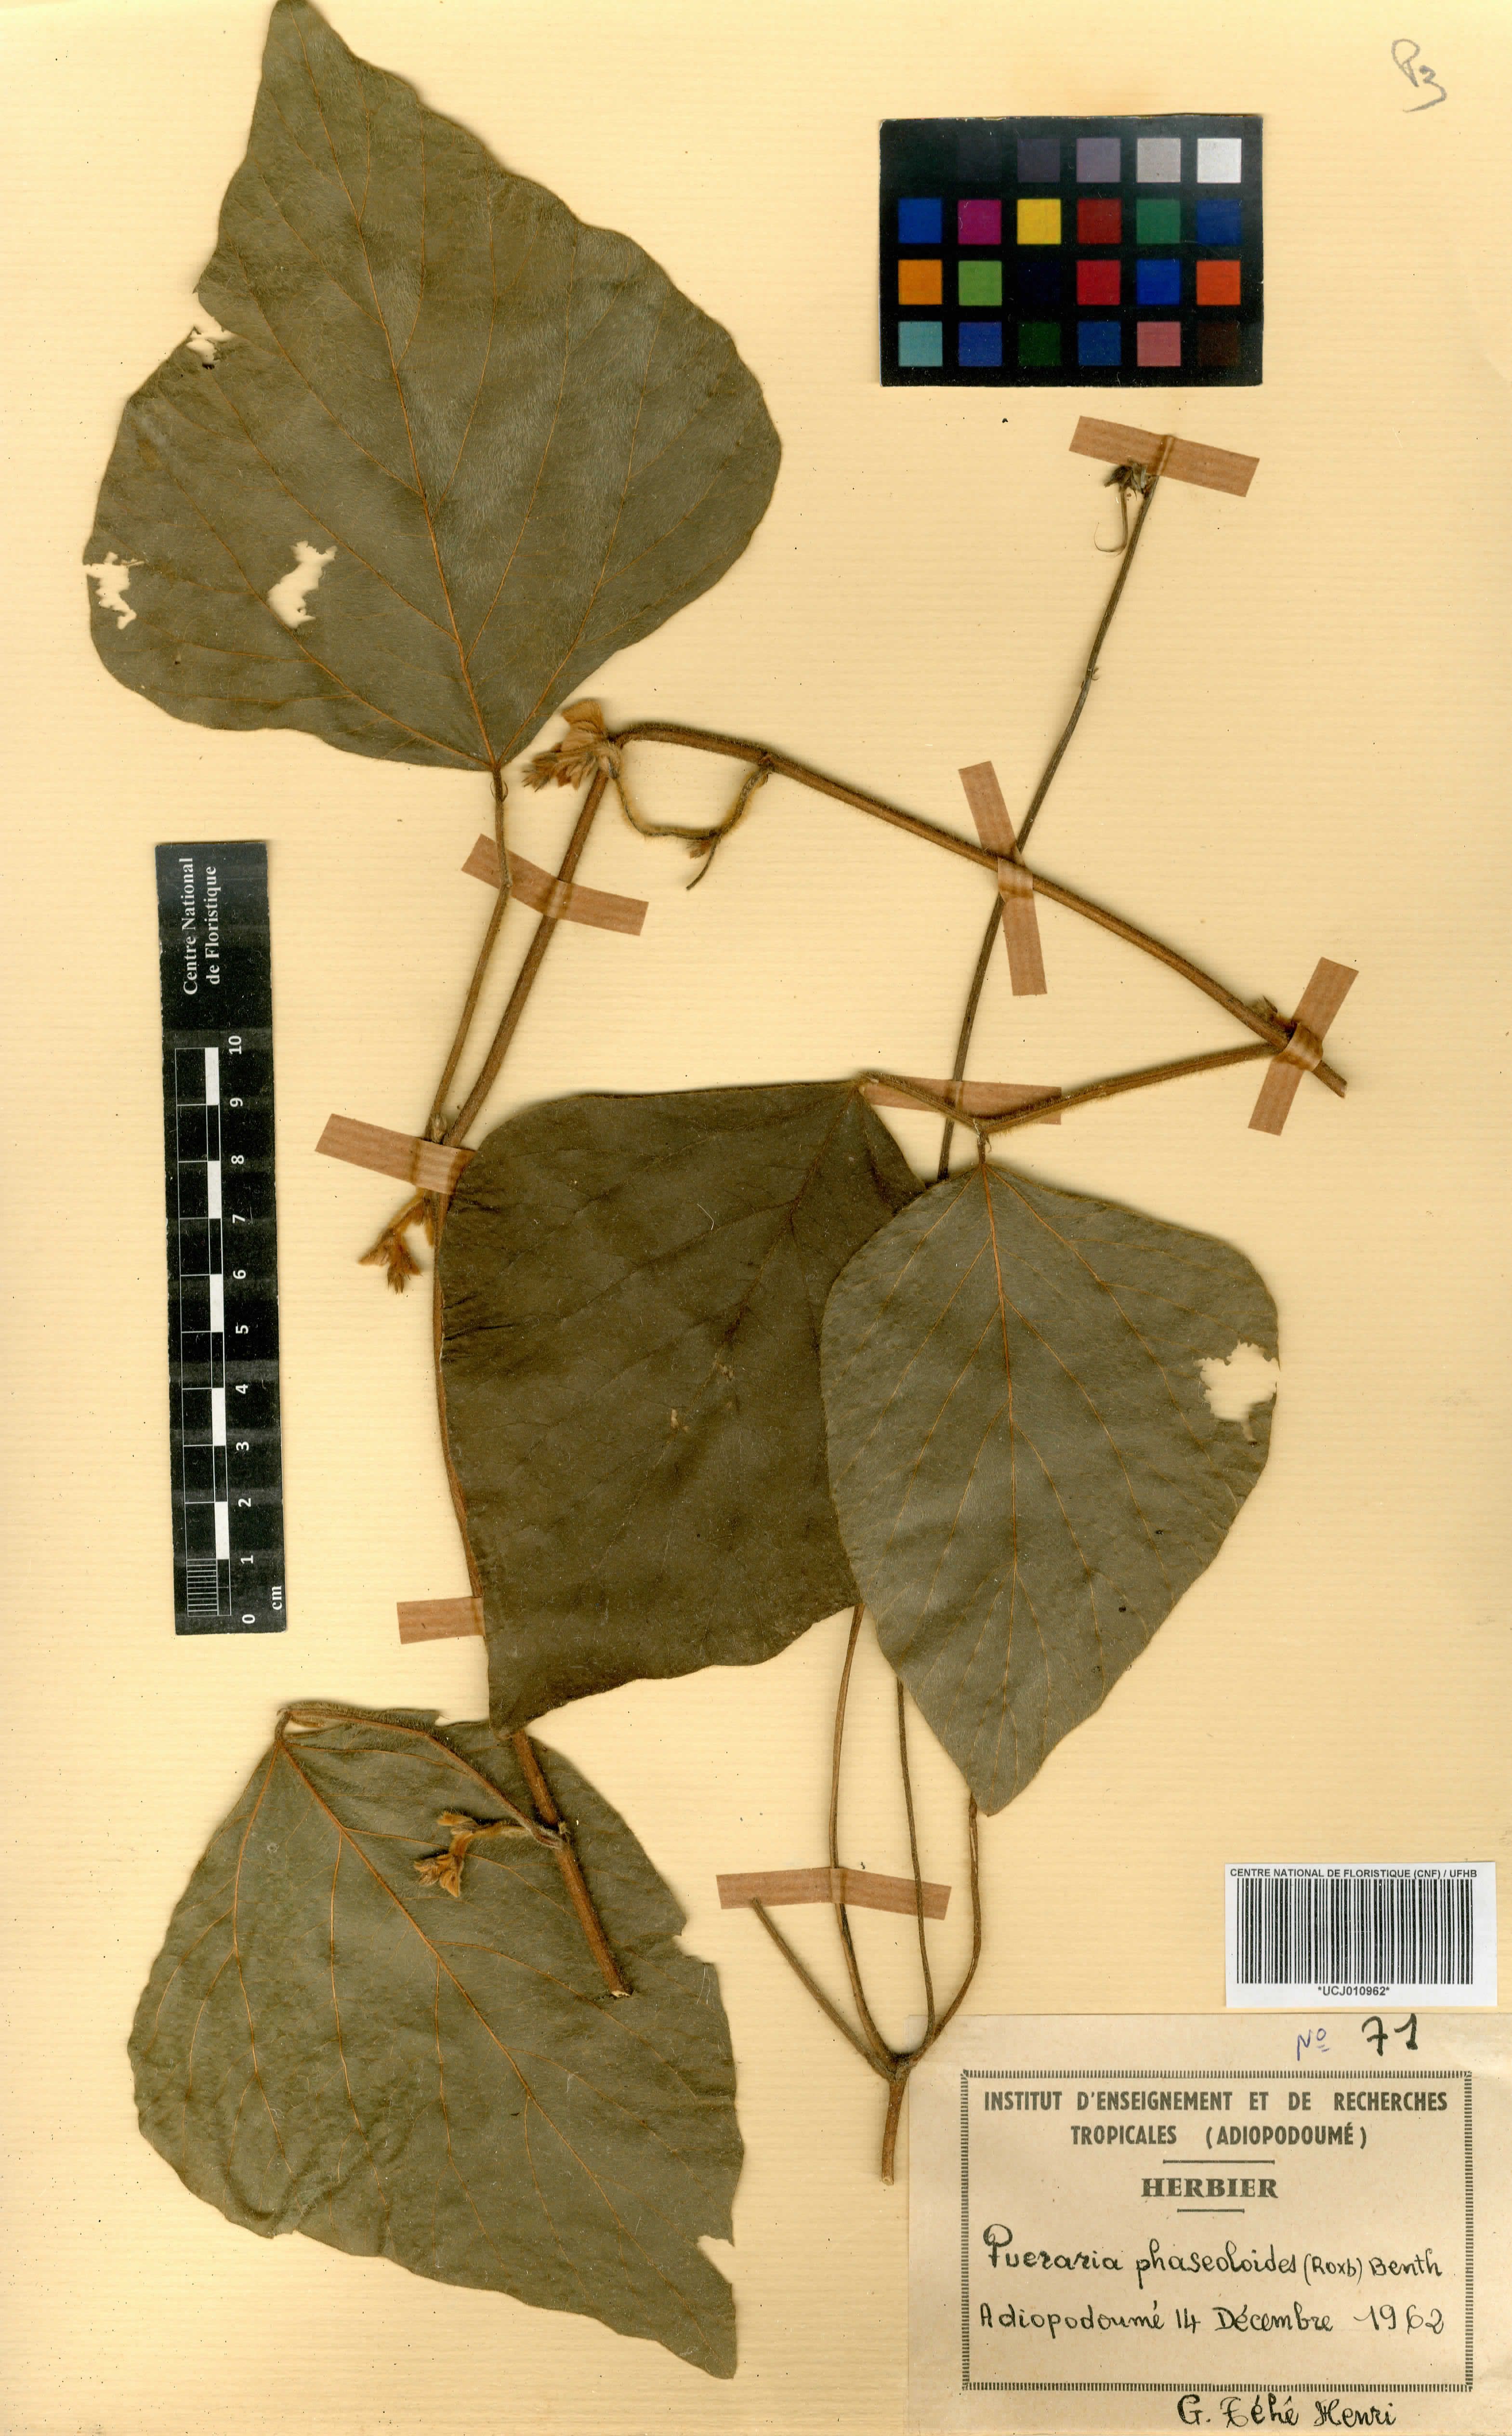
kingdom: Plantae
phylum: Tracheophyta
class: Magnoliopsida
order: Fabales
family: Fabaceae
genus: Neustanthus
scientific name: Neustanthus phaseoloides
